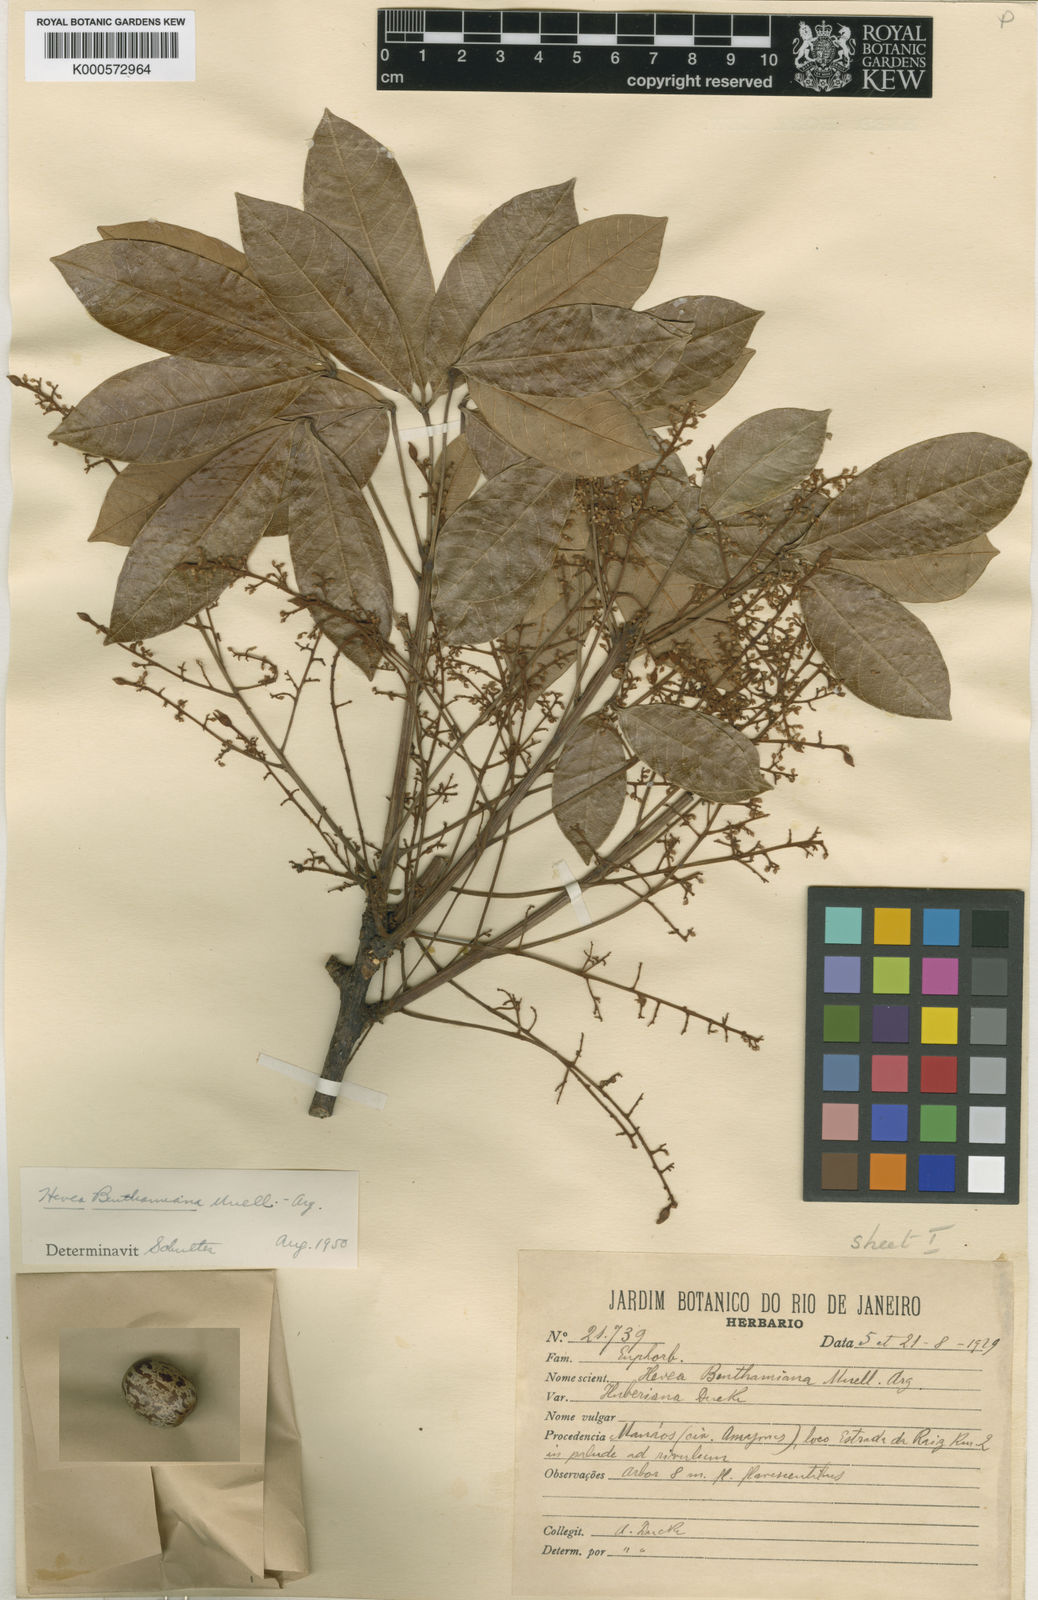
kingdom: Plantae
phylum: Tracheophyta
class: Magnoliopsida
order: Malpighiales
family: Euphorbiaceae
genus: Hevea
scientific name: Hevea benthamiana
